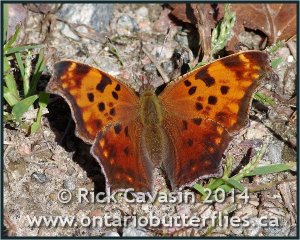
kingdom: Animalia
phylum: Arthropoda
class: Insecta
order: Lepidoptera
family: Nymphalidae
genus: Polygonia
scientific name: Polygonia comma
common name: Eastern Comma
